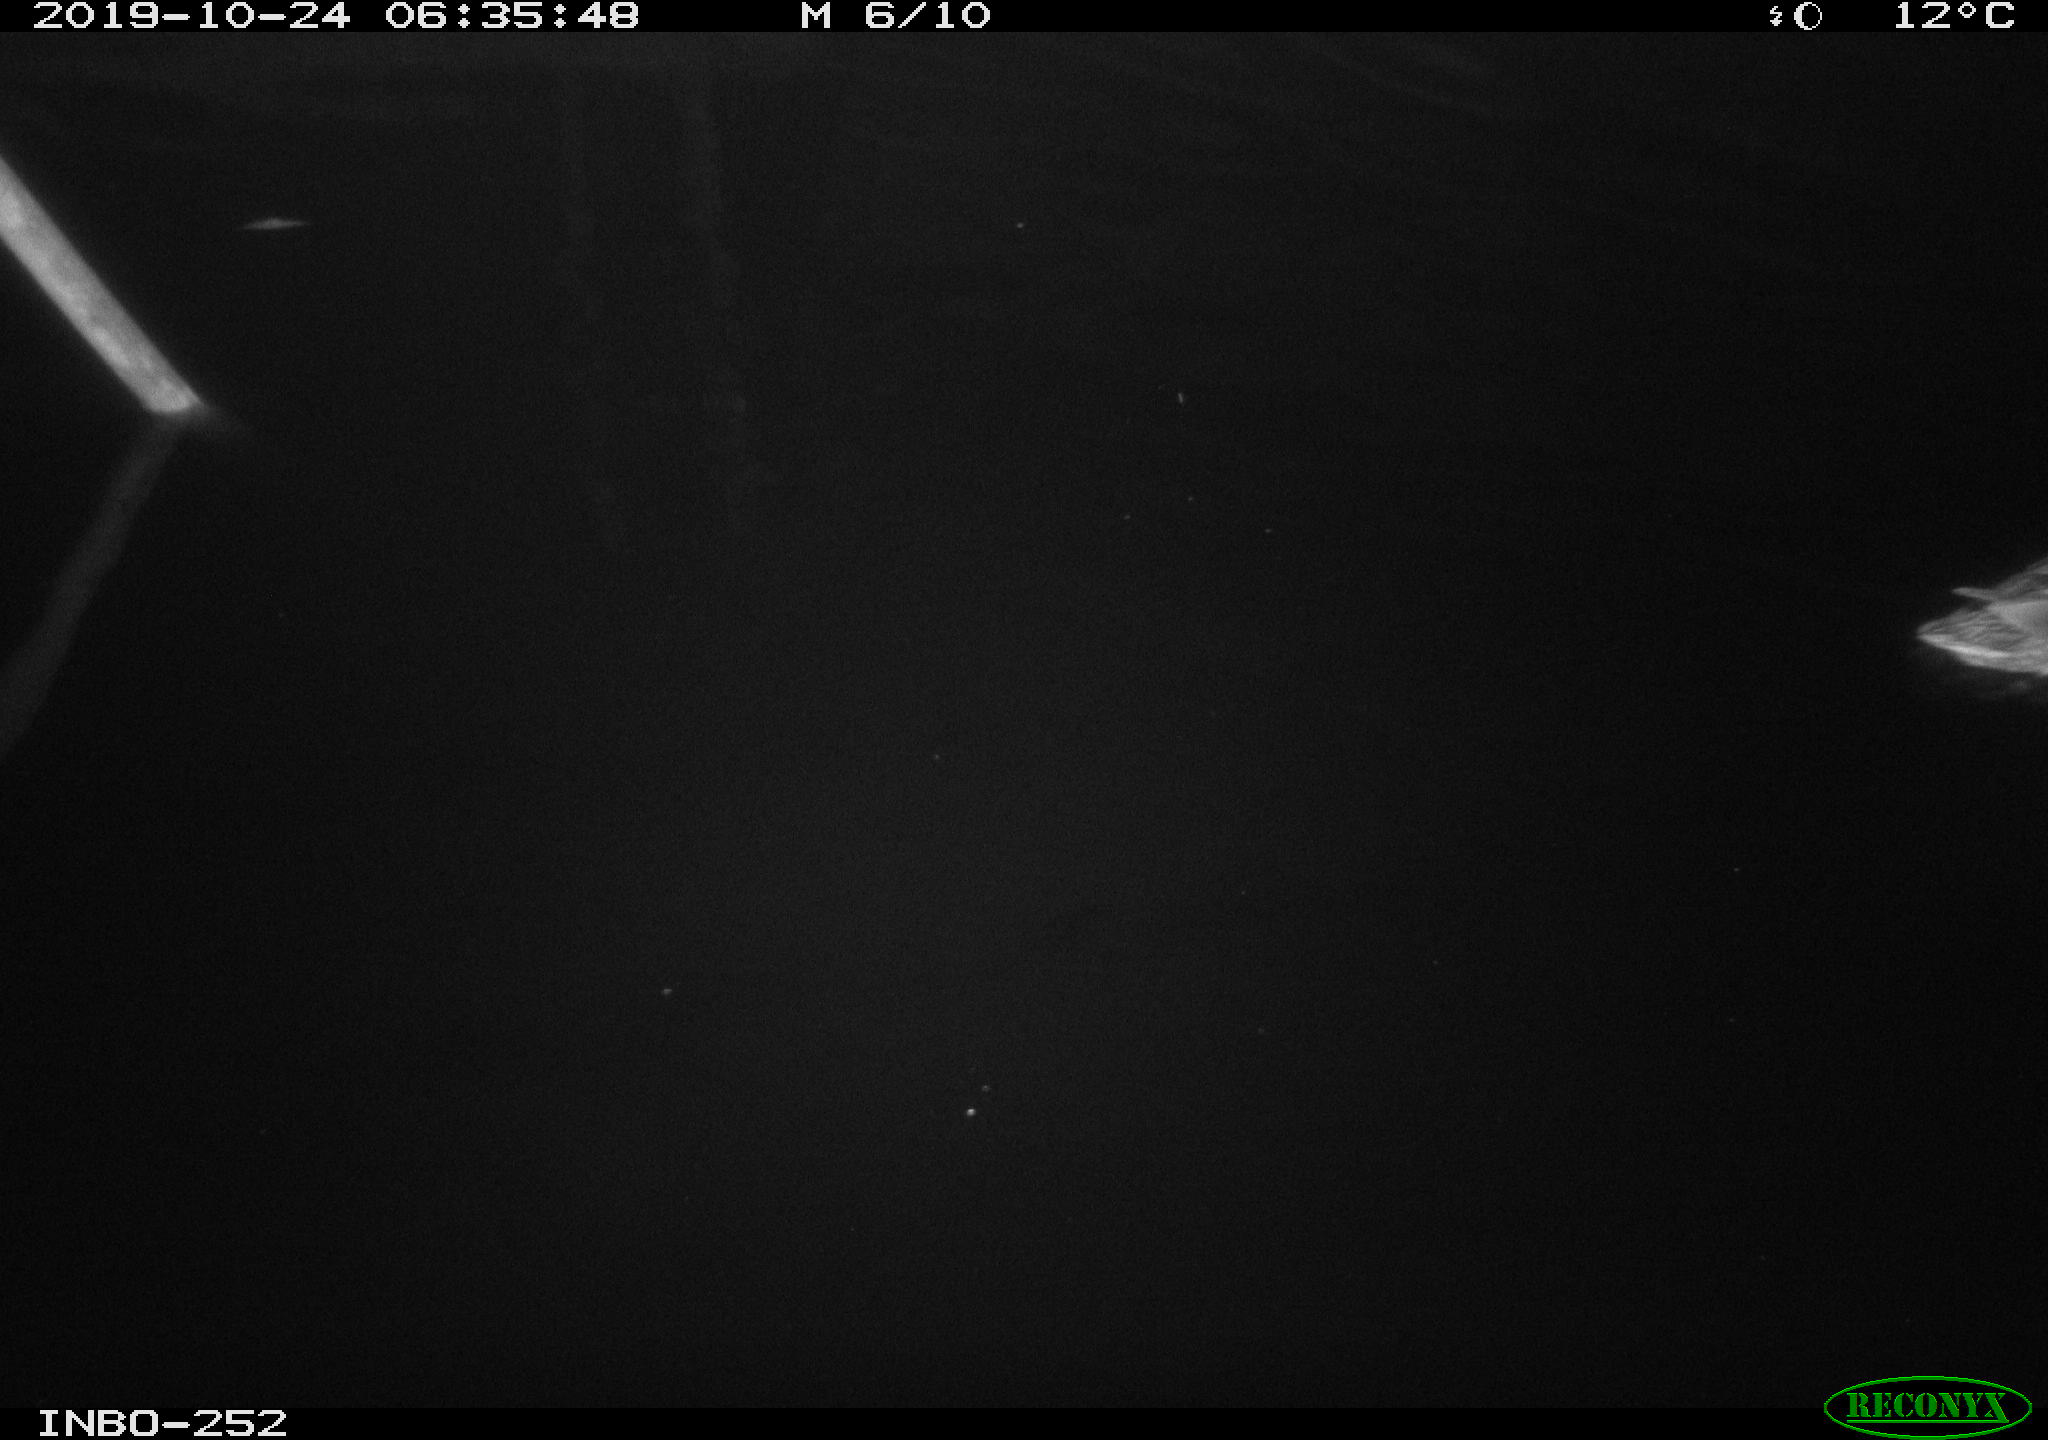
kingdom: Animalia
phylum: Chordata
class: Aves
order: Anseriformes
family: Anatidae
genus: Anas
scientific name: Anas platyrhynchos
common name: Mallard
